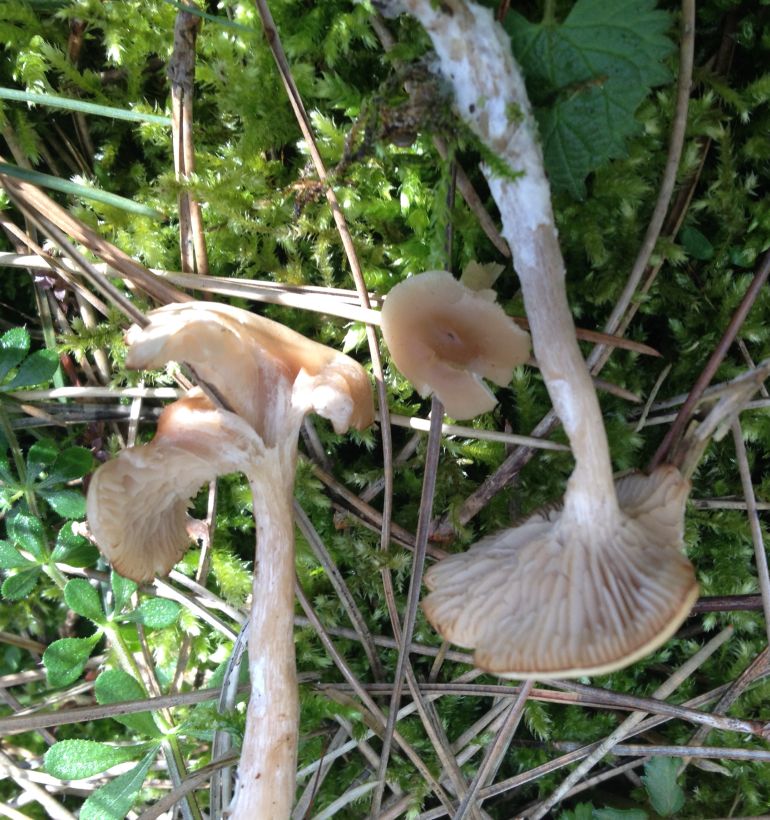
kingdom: Fungi
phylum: Basidiomycota
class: Agaricomycetes
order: Agaricales
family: Tricholomataceae
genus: Clitocybe
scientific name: Clitocybe fragrans
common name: vellugtende tragthat
